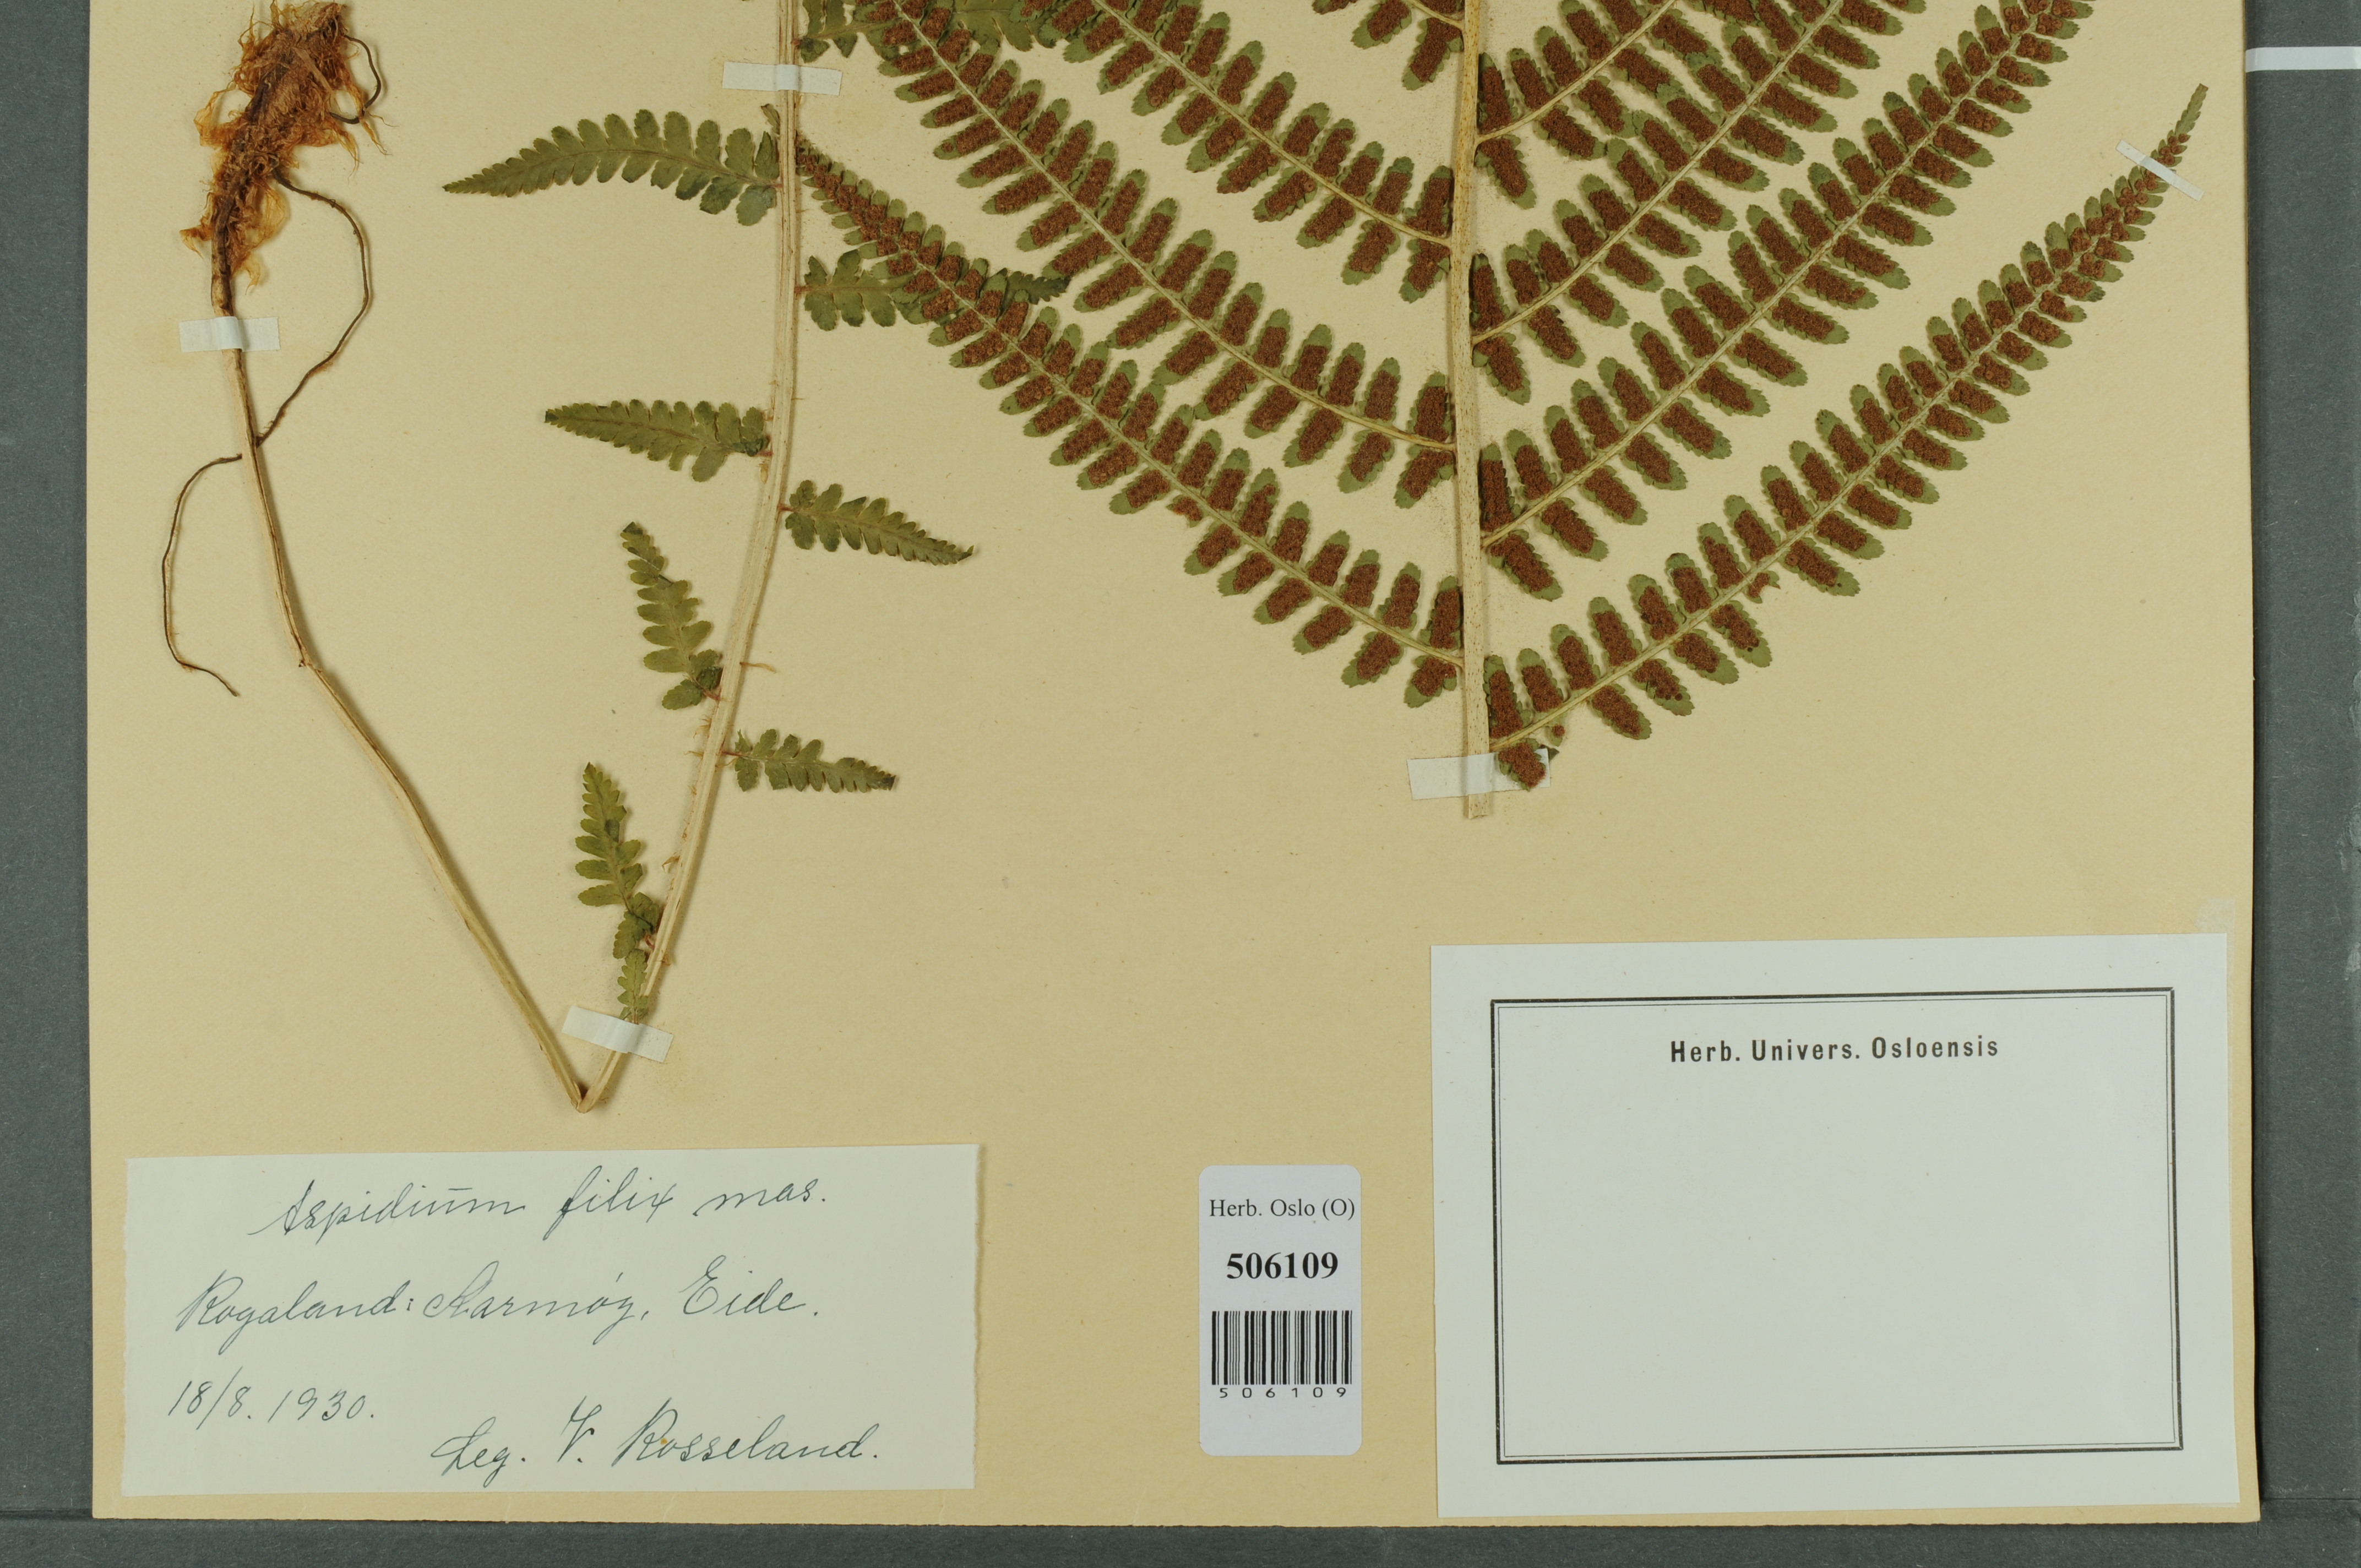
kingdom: Plantae
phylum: Tracheophyta
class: Polypodiopsida
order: Polypodiales
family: Dryopteridaceae
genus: Dryopteris
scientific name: Dryopteris filix-mas
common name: Male fern
